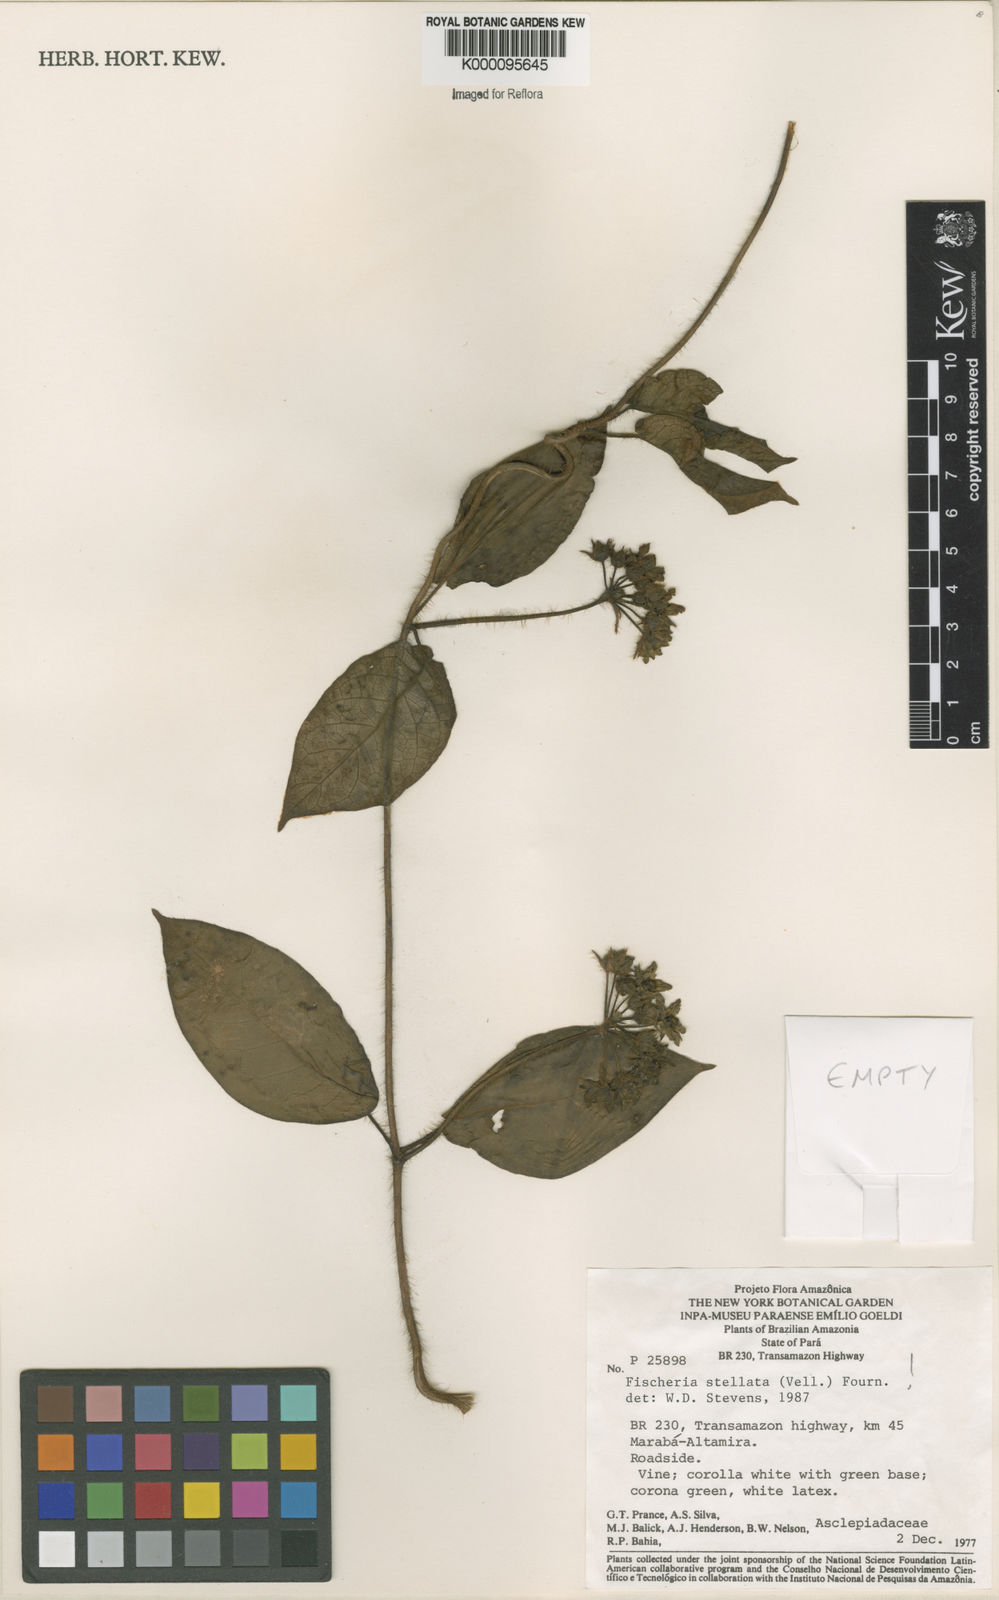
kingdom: Plantae
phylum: Tracheophyta
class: Magnoliopsida
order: Gentianales
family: Apocynaceae
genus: Fischeria
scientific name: Fischeria stellata
